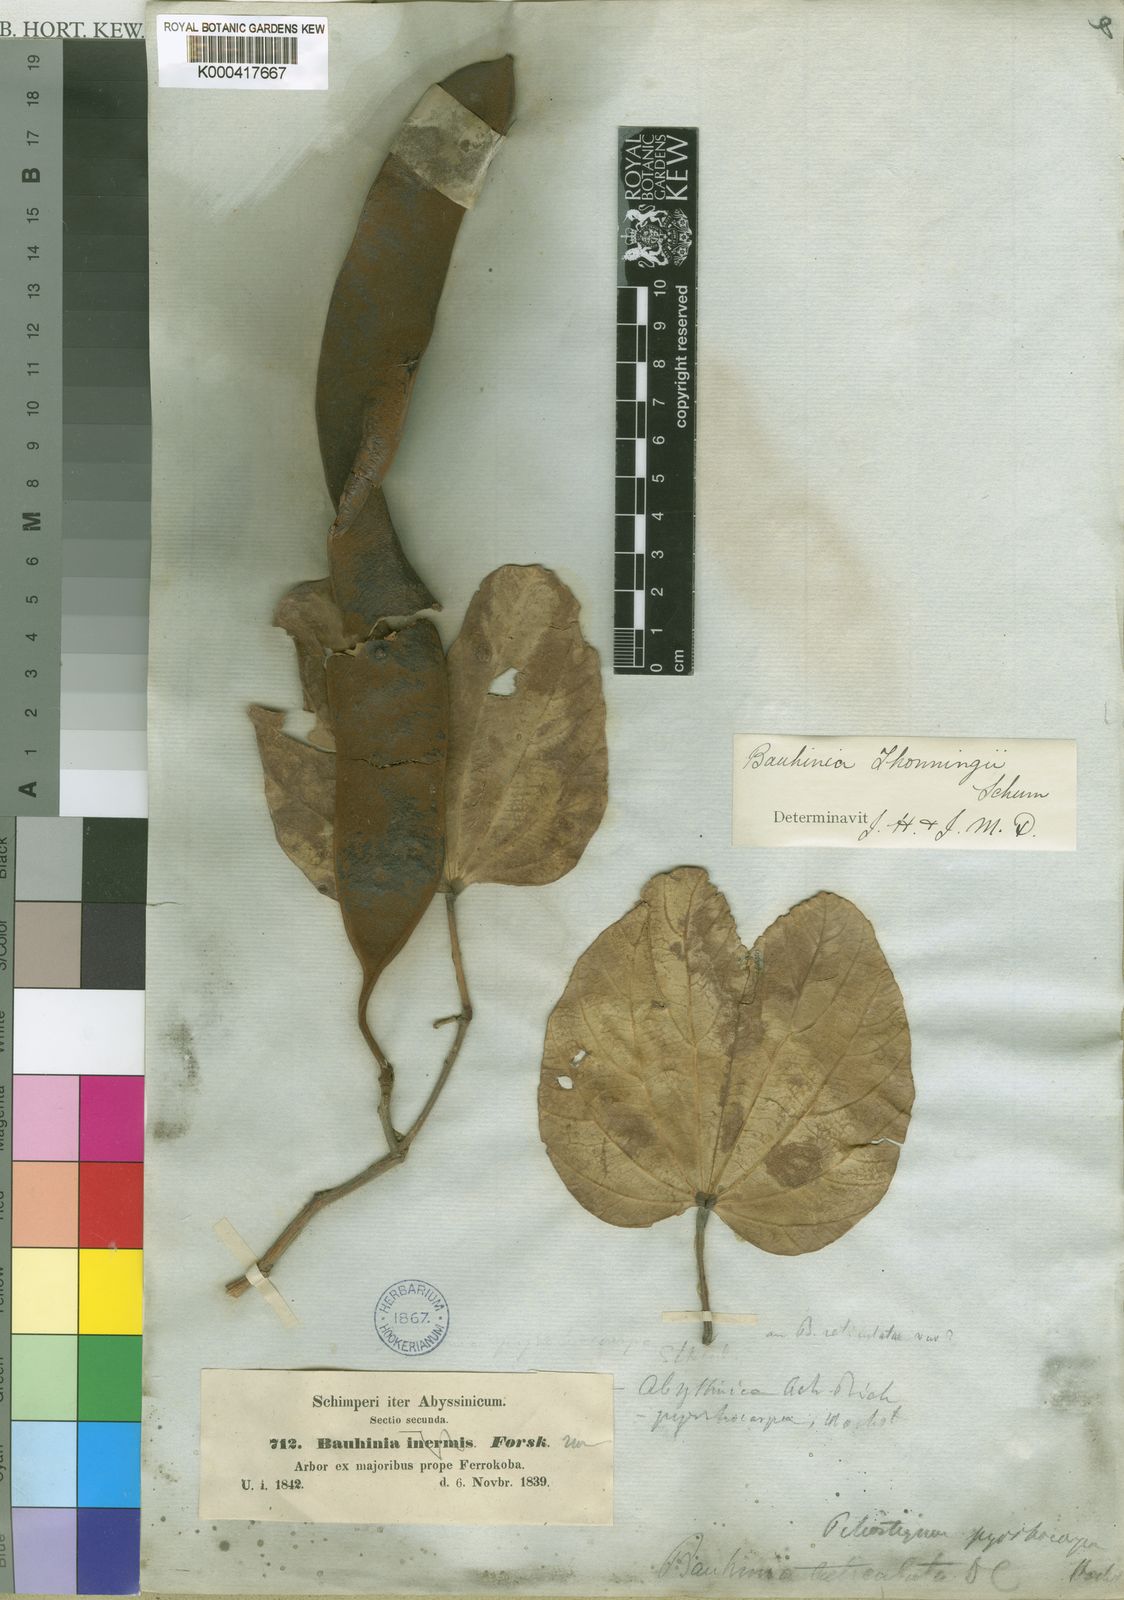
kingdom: Plantae
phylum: Tracheophyta
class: Magnoliopsida
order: Fabales
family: Fabaceae
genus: Piliostigma
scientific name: Piliostigma thonningii
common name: Kao
